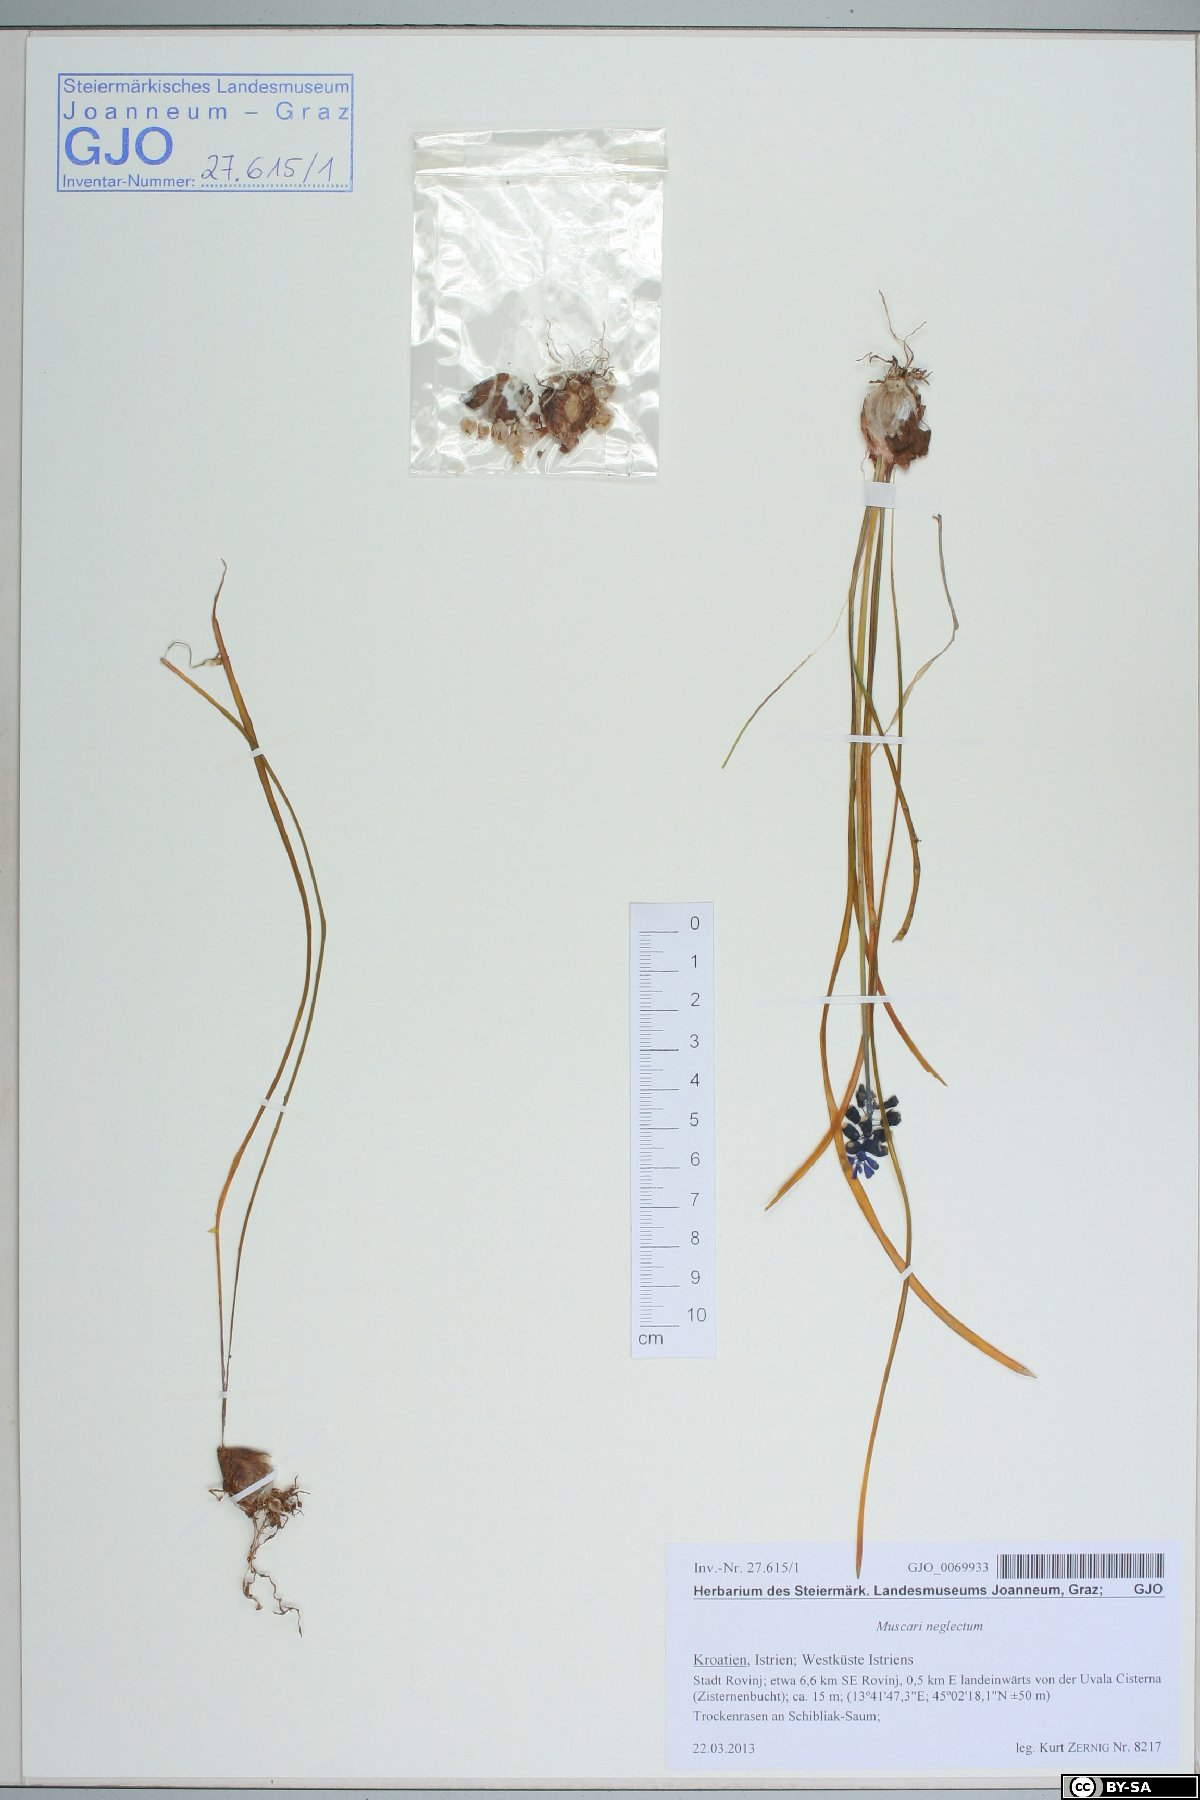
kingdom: Plantae
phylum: Tracheophyta
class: Liliopsida
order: Asparagales
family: Asparagaceae
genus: Muscari
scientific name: Muscari neglectum
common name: Grape-hyacinth
